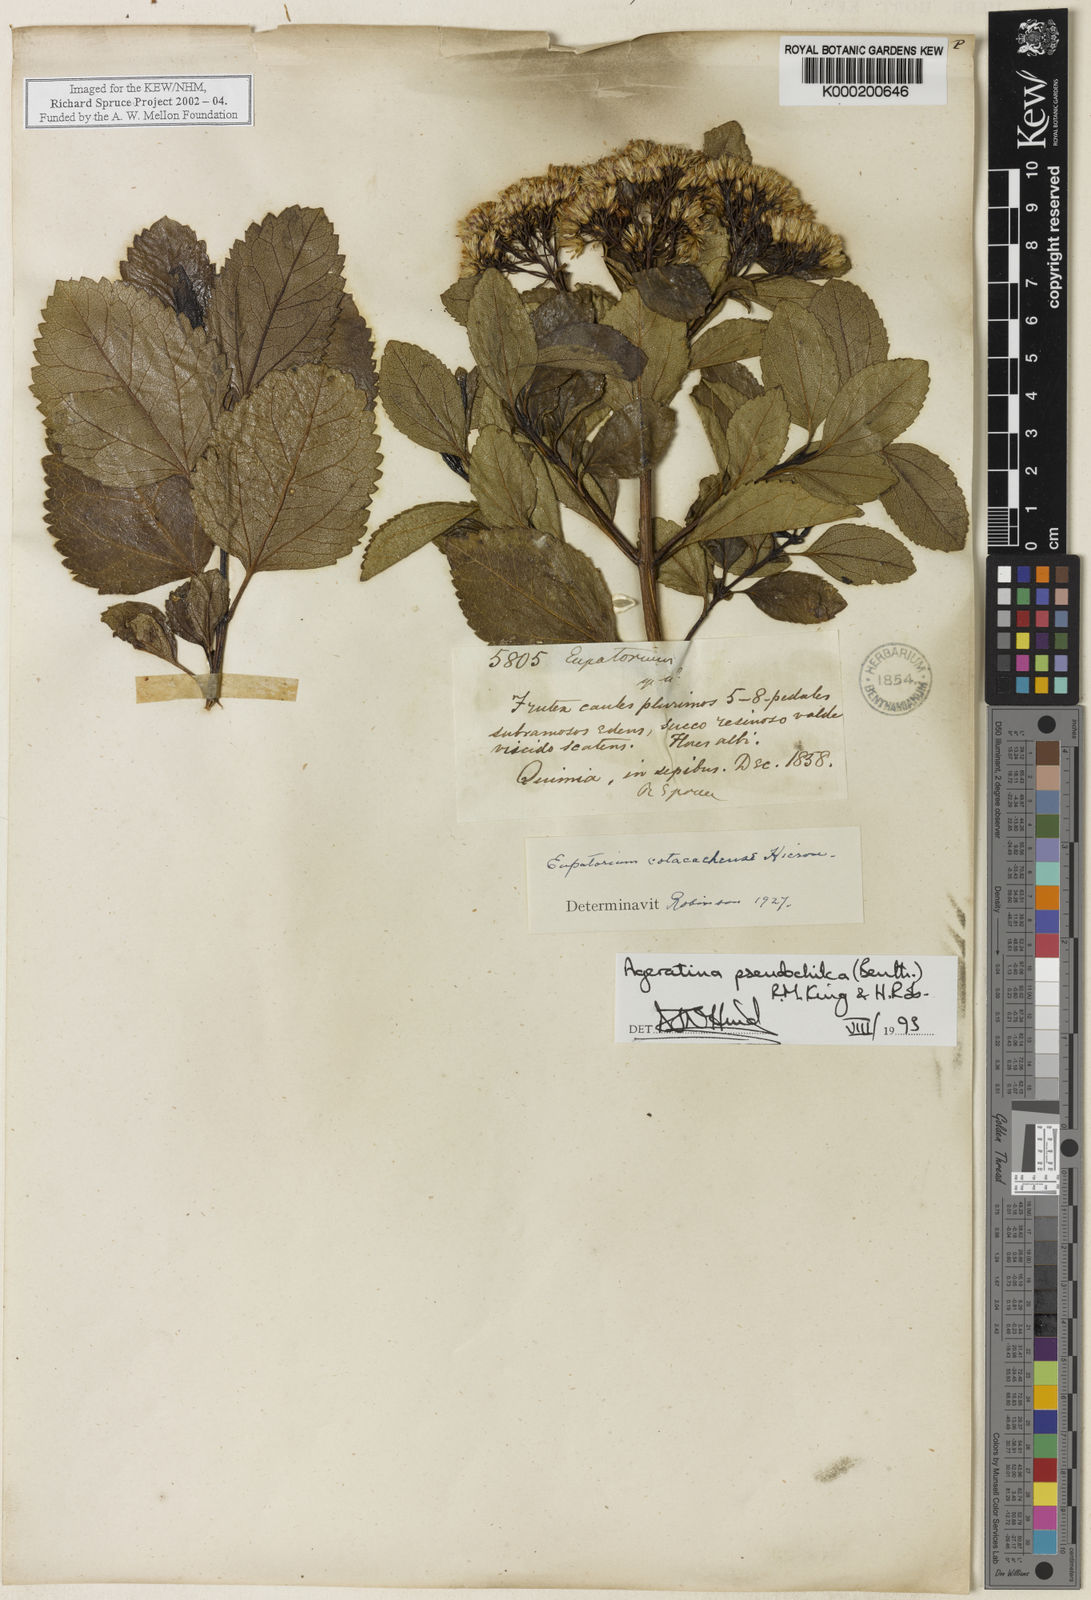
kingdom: Plantae
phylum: Tracheophyta
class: Magnoliopsida
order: Asterales
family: Asteraceae
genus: Ageratina
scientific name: Ageratina pseudochilca
